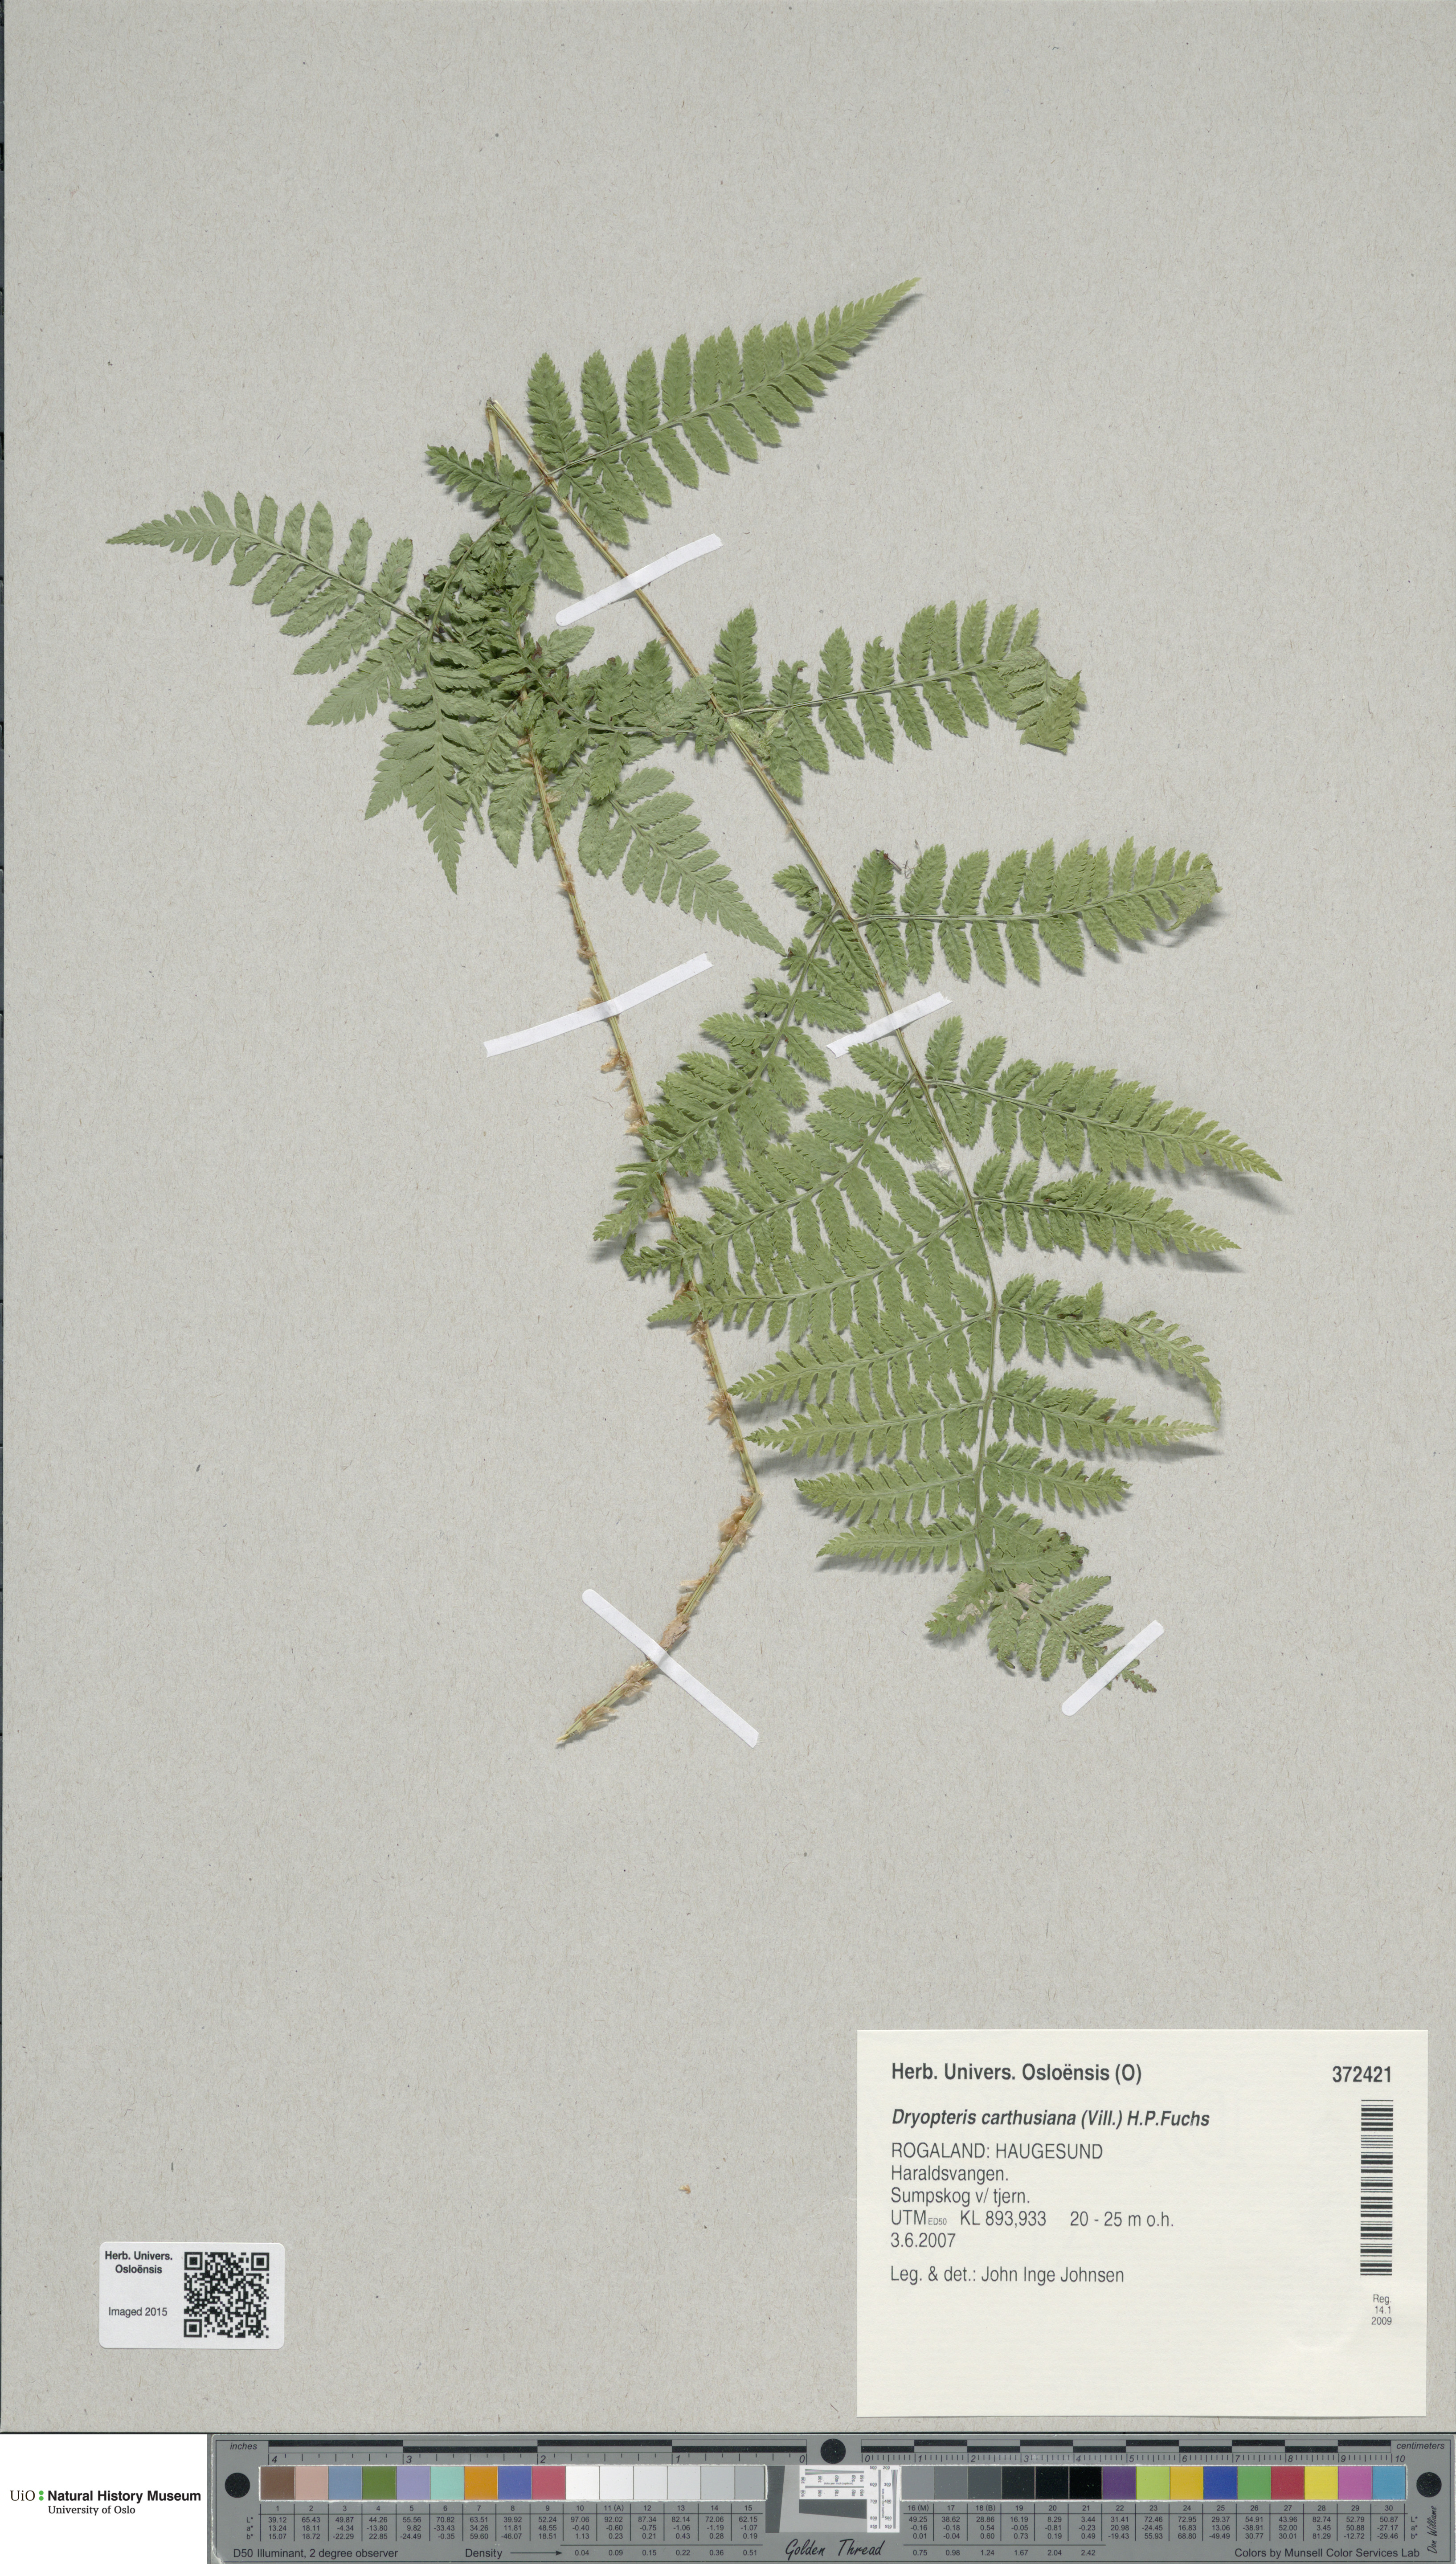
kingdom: Plantae
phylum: Tracheophyta
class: Polypodiopsida
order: Polypodiales
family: Dryopteridaceae
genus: Dryopteris
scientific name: Dryopteris carthusiana
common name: Narrow buckler-fern
